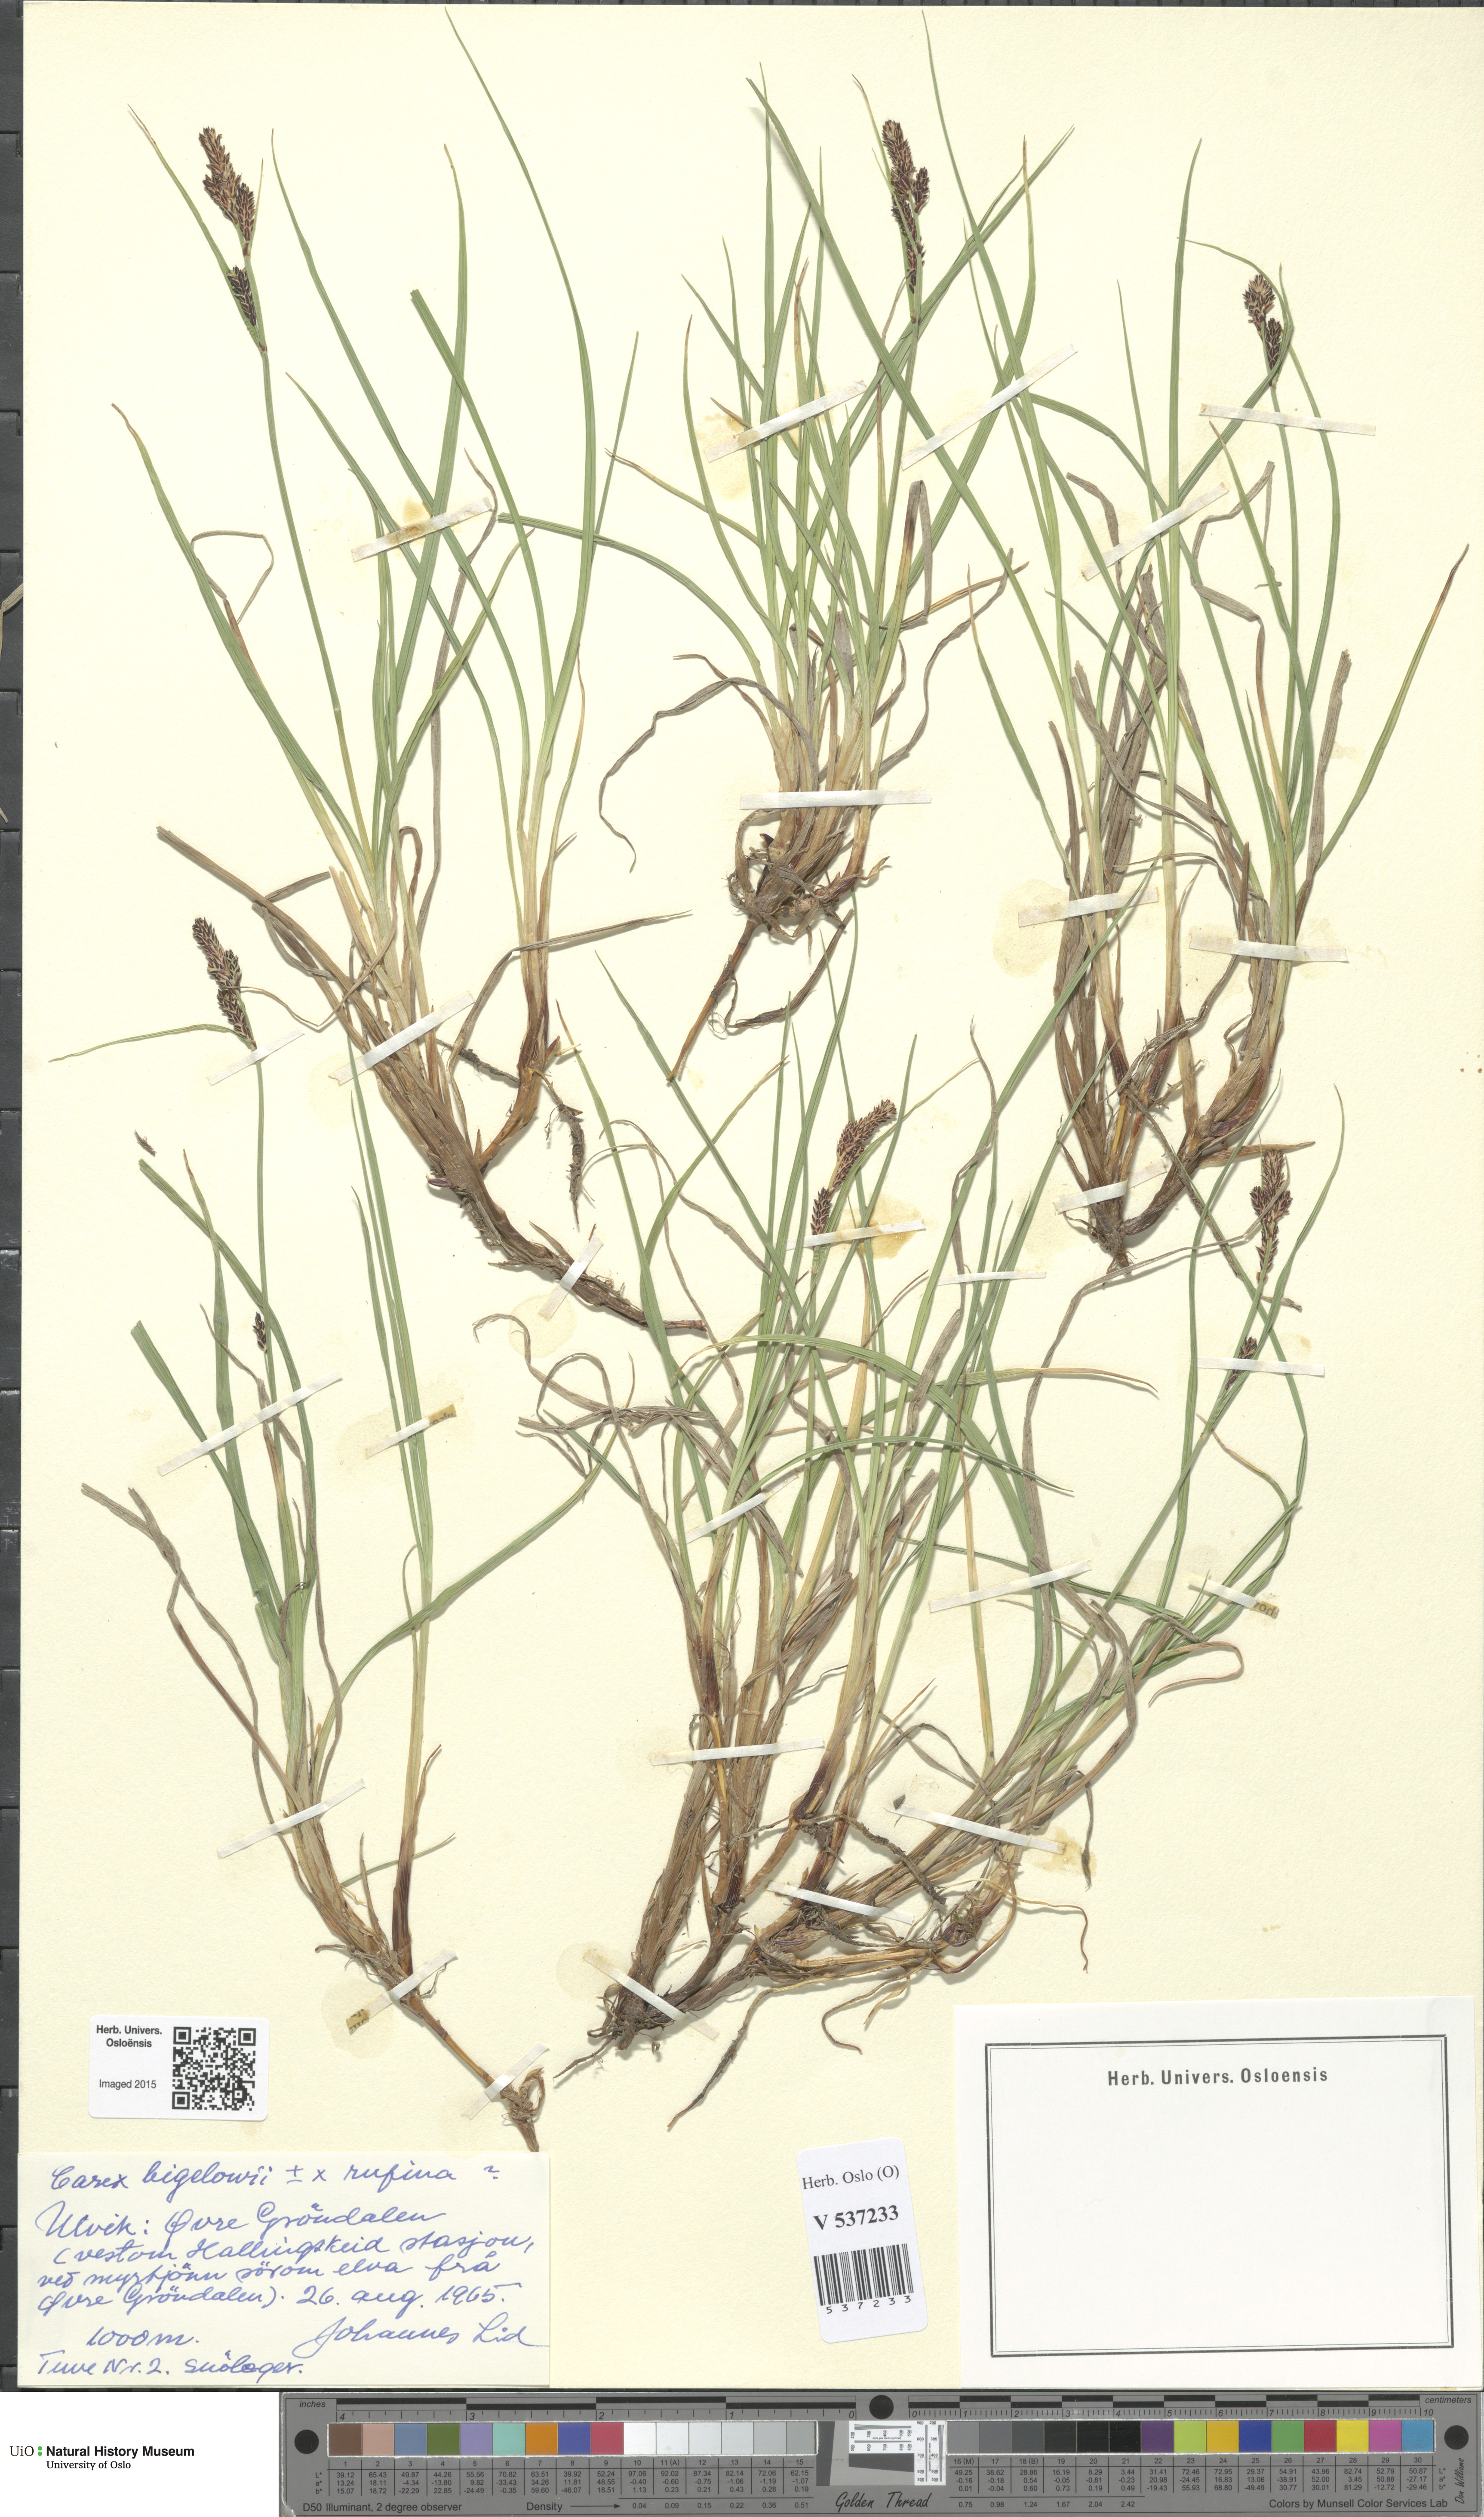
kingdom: Plantae
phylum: Tracheophyta
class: Liliopsida
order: Poales
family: Cyperaceae
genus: Carex
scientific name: Carex
